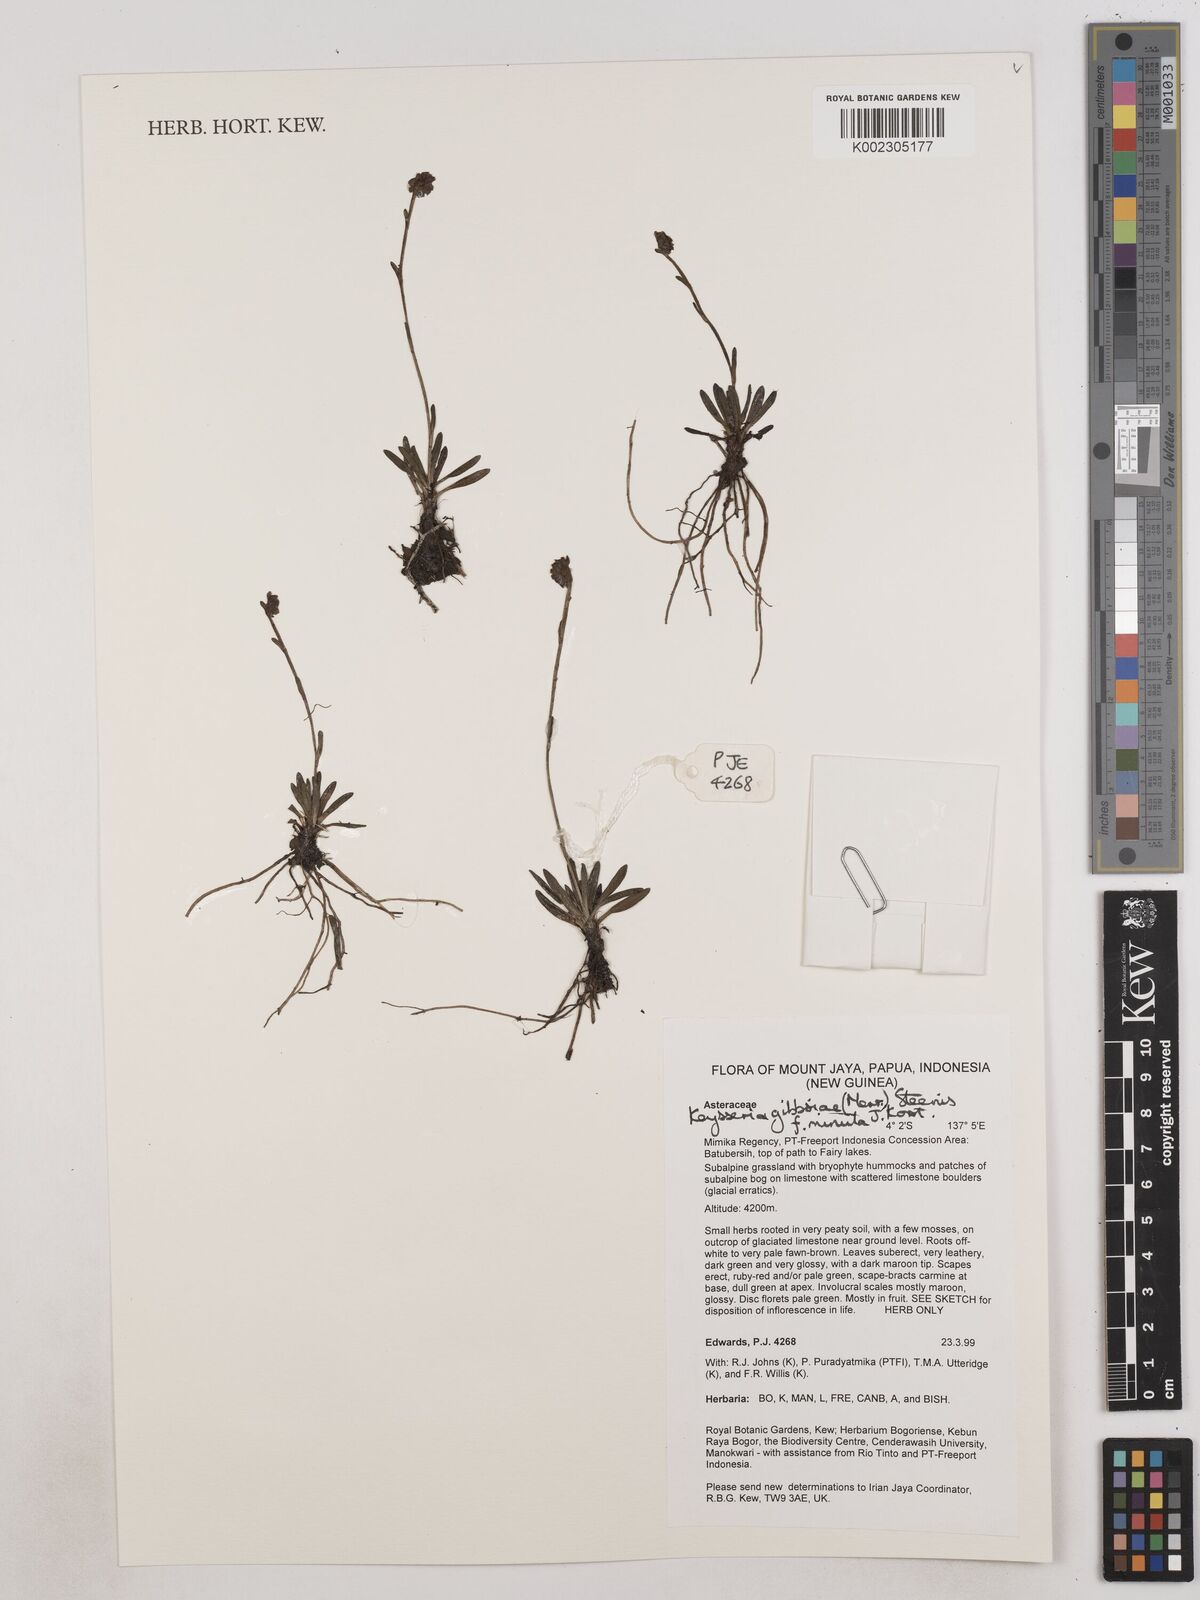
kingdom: Plantae
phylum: Tracheophyta
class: Magnoliopsida
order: Asterales
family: Asteraceae
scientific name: Asteraceae
